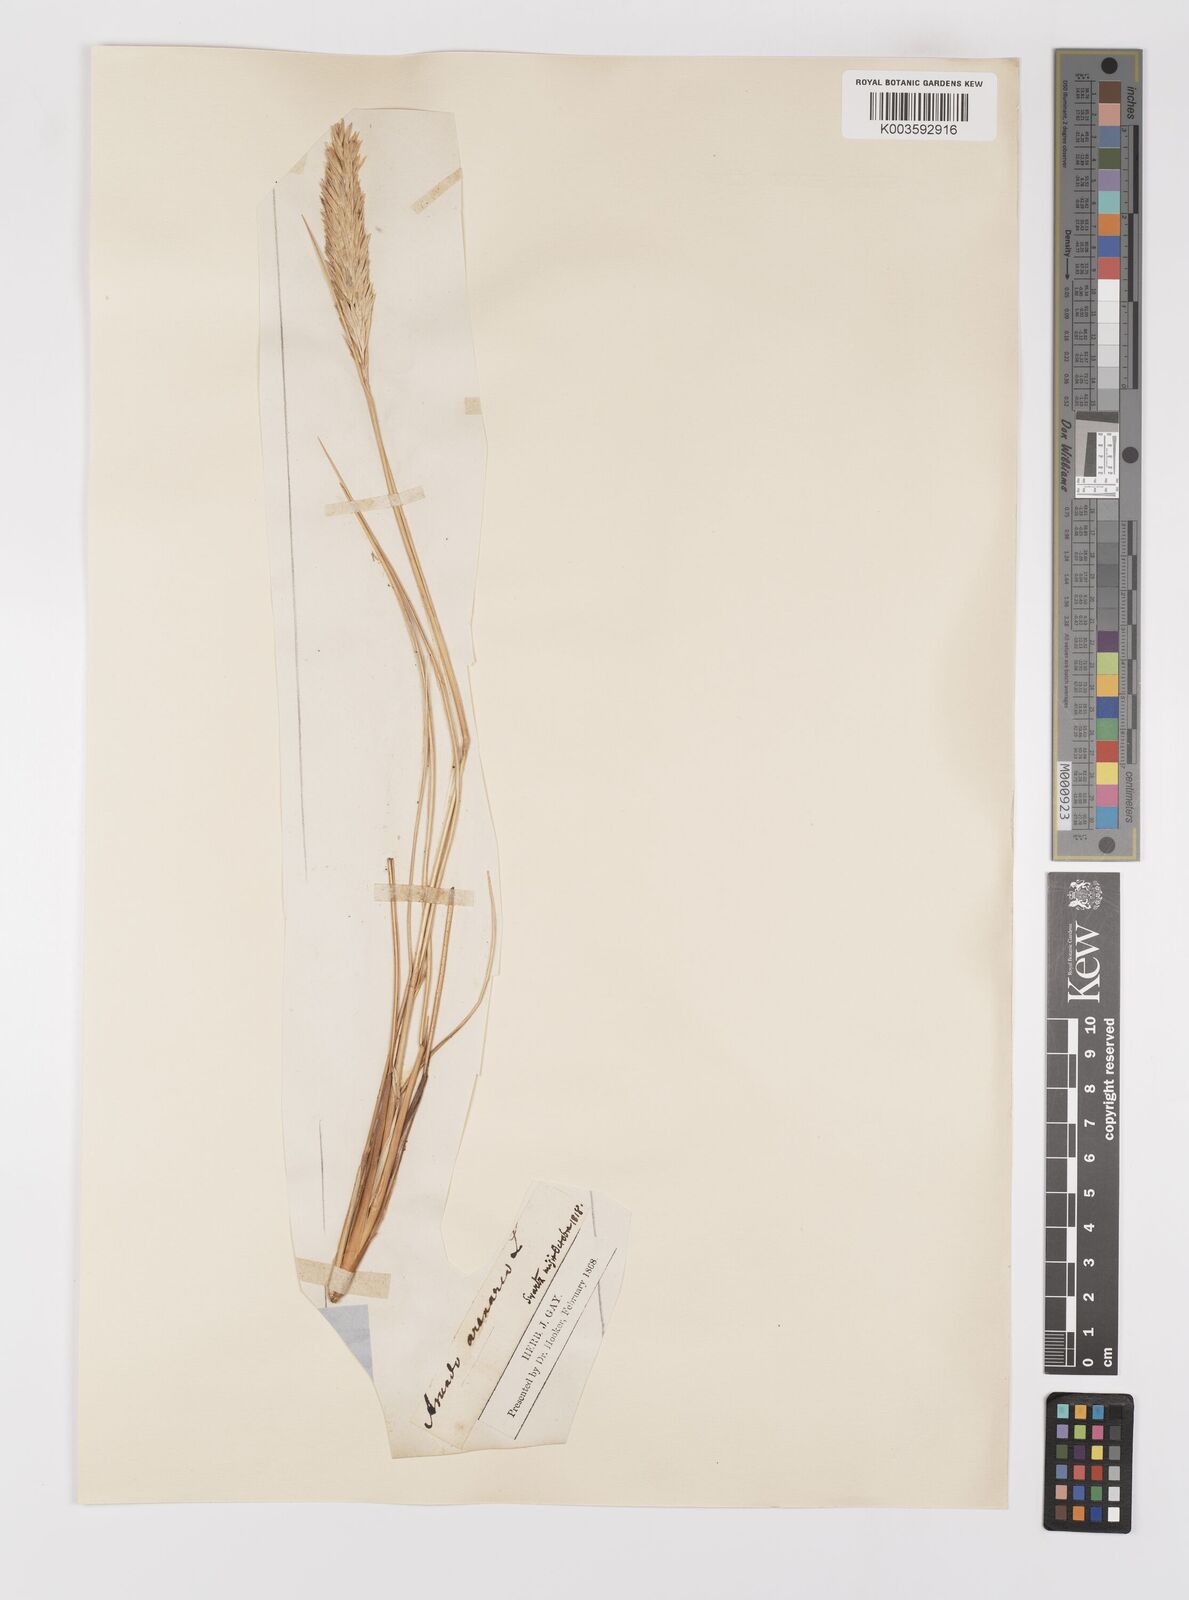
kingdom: Plantae
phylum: Tracheophyta
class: Liliopsida
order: Poales
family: Poaceae
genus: Calamagrostis
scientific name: Calamagrostis arenaria
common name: European beachgrass
